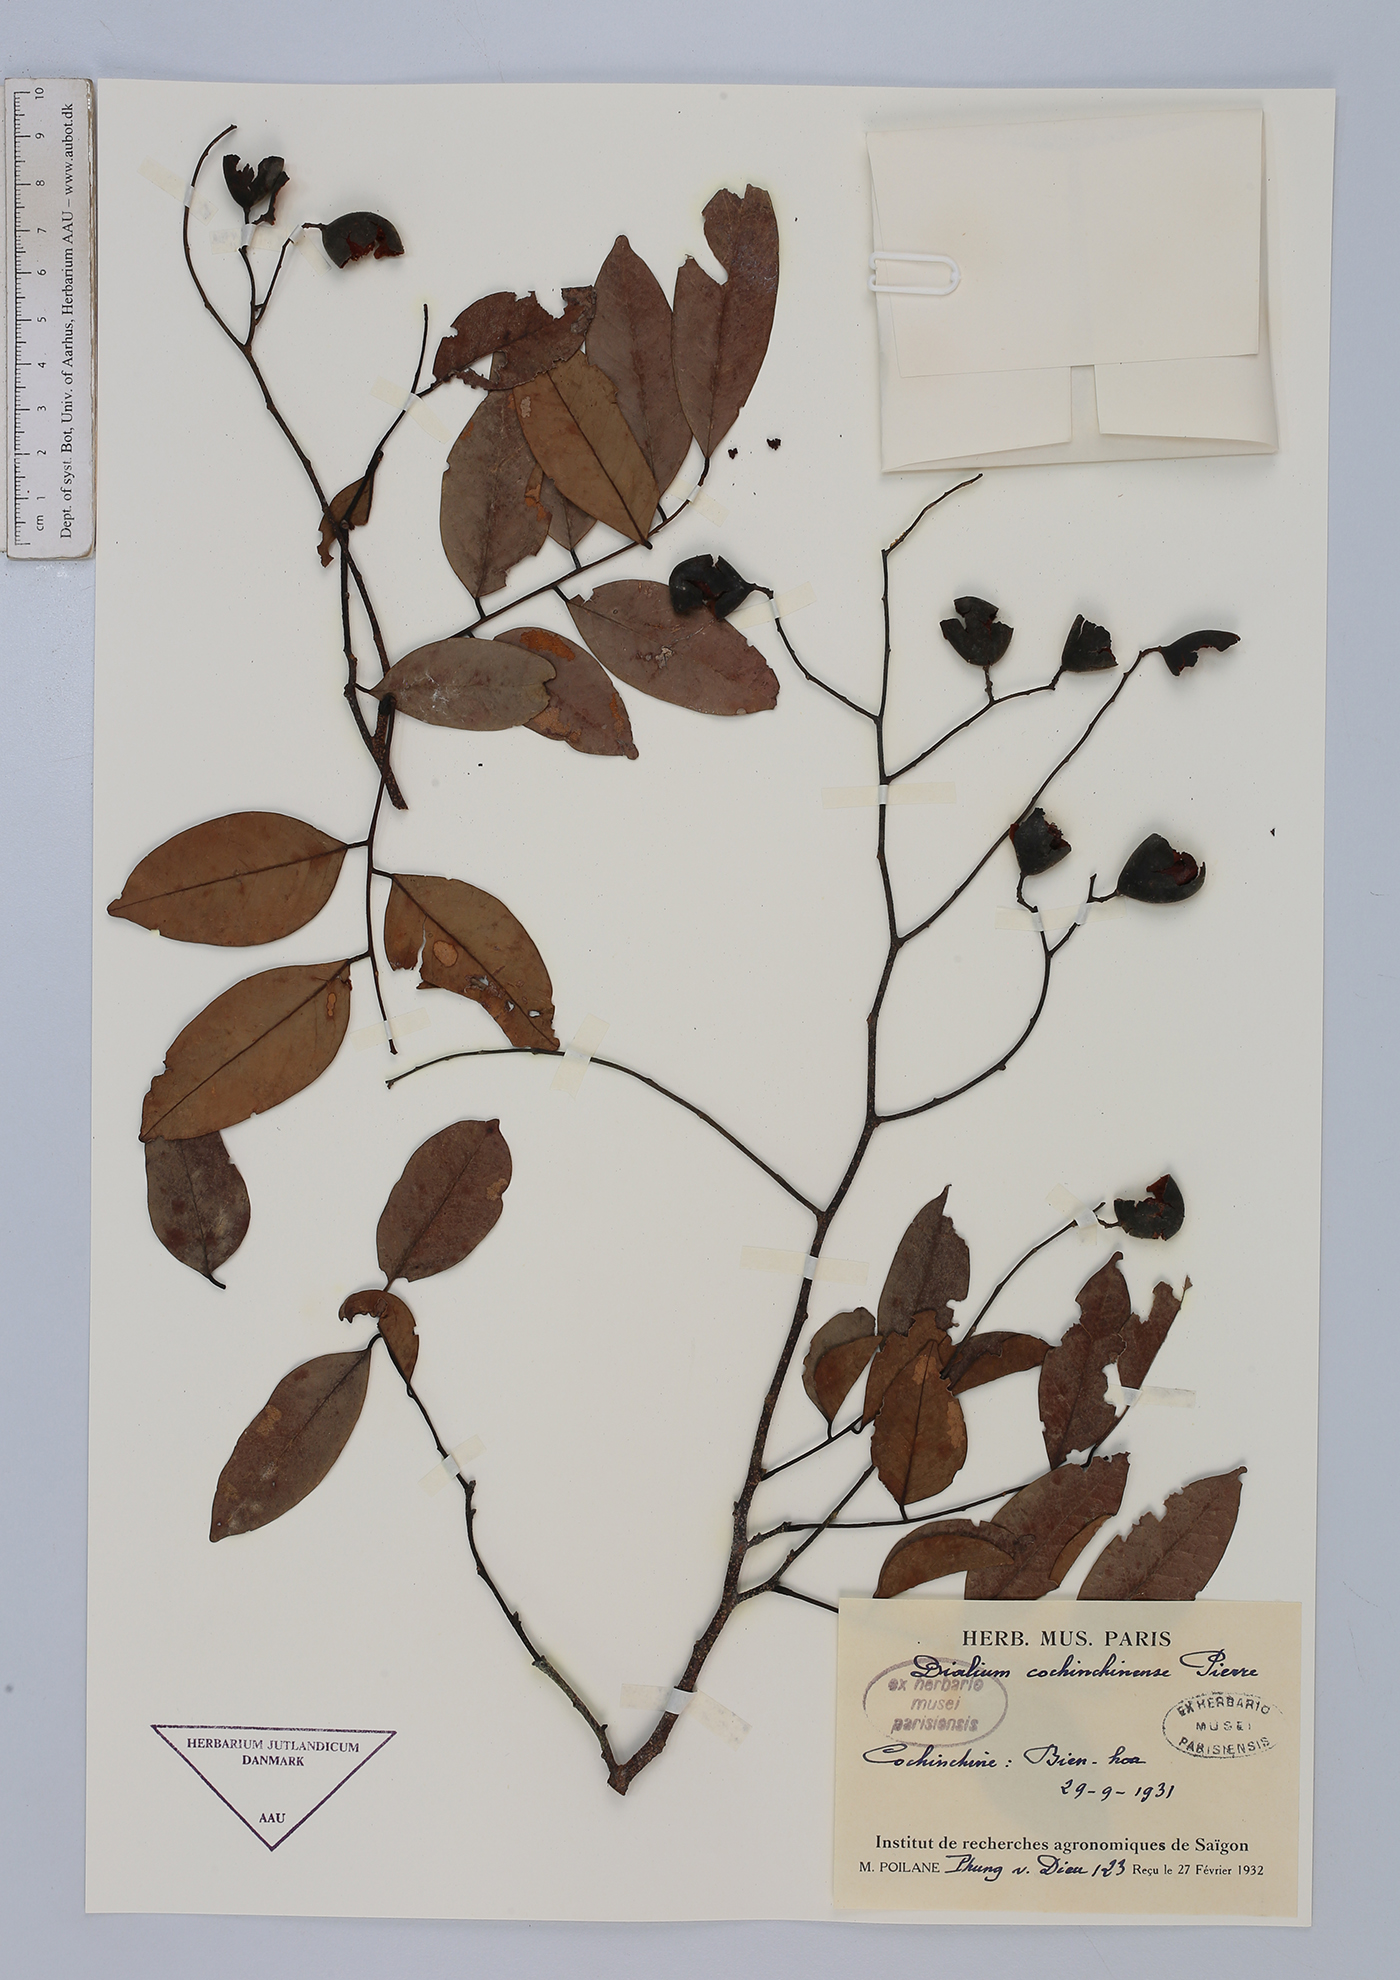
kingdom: Plantae
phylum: Tracheophyta
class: Magnoliopsida
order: Fabales
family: Fabaceae
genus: Dialium
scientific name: Dialium cochinchinense
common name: Velvet tamarind
